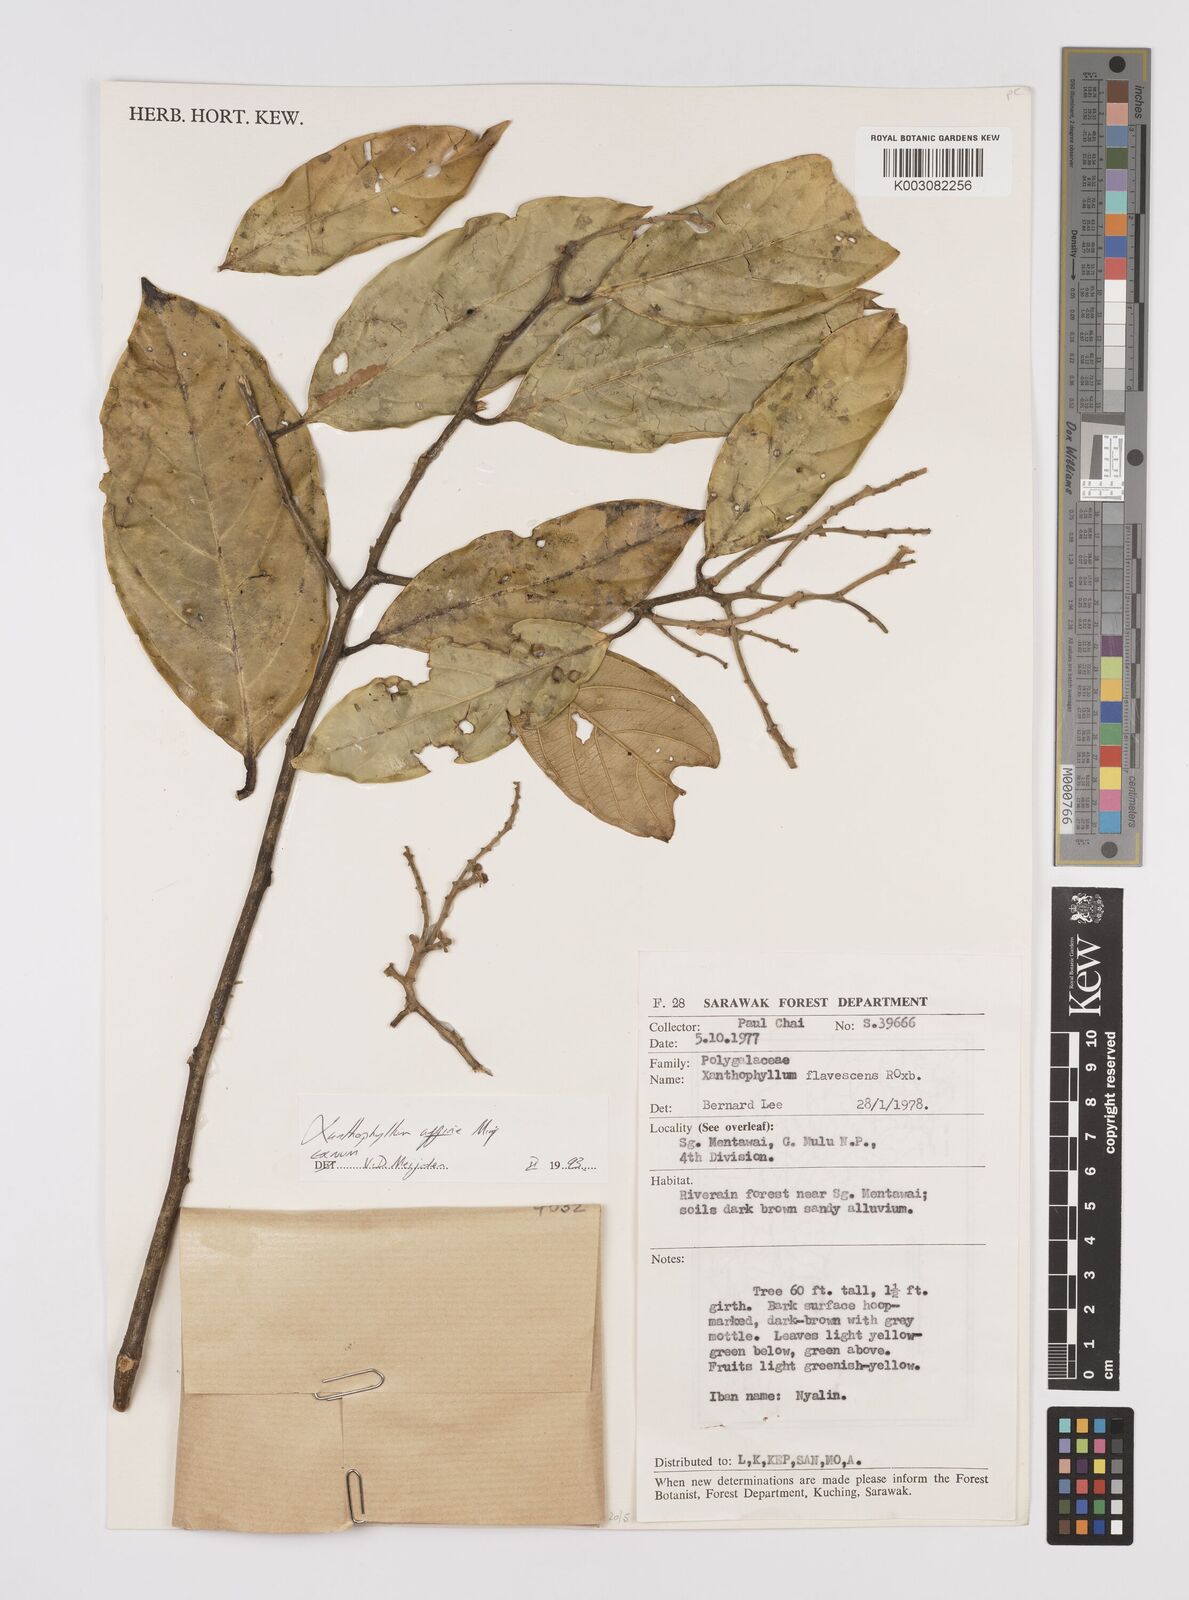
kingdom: Plantae
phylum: Tracheophyta
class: Magnoliopsida
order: Fabales
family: Polygalaceae
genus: Xanthophyllum
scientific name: Xanthophyllum flavescens
